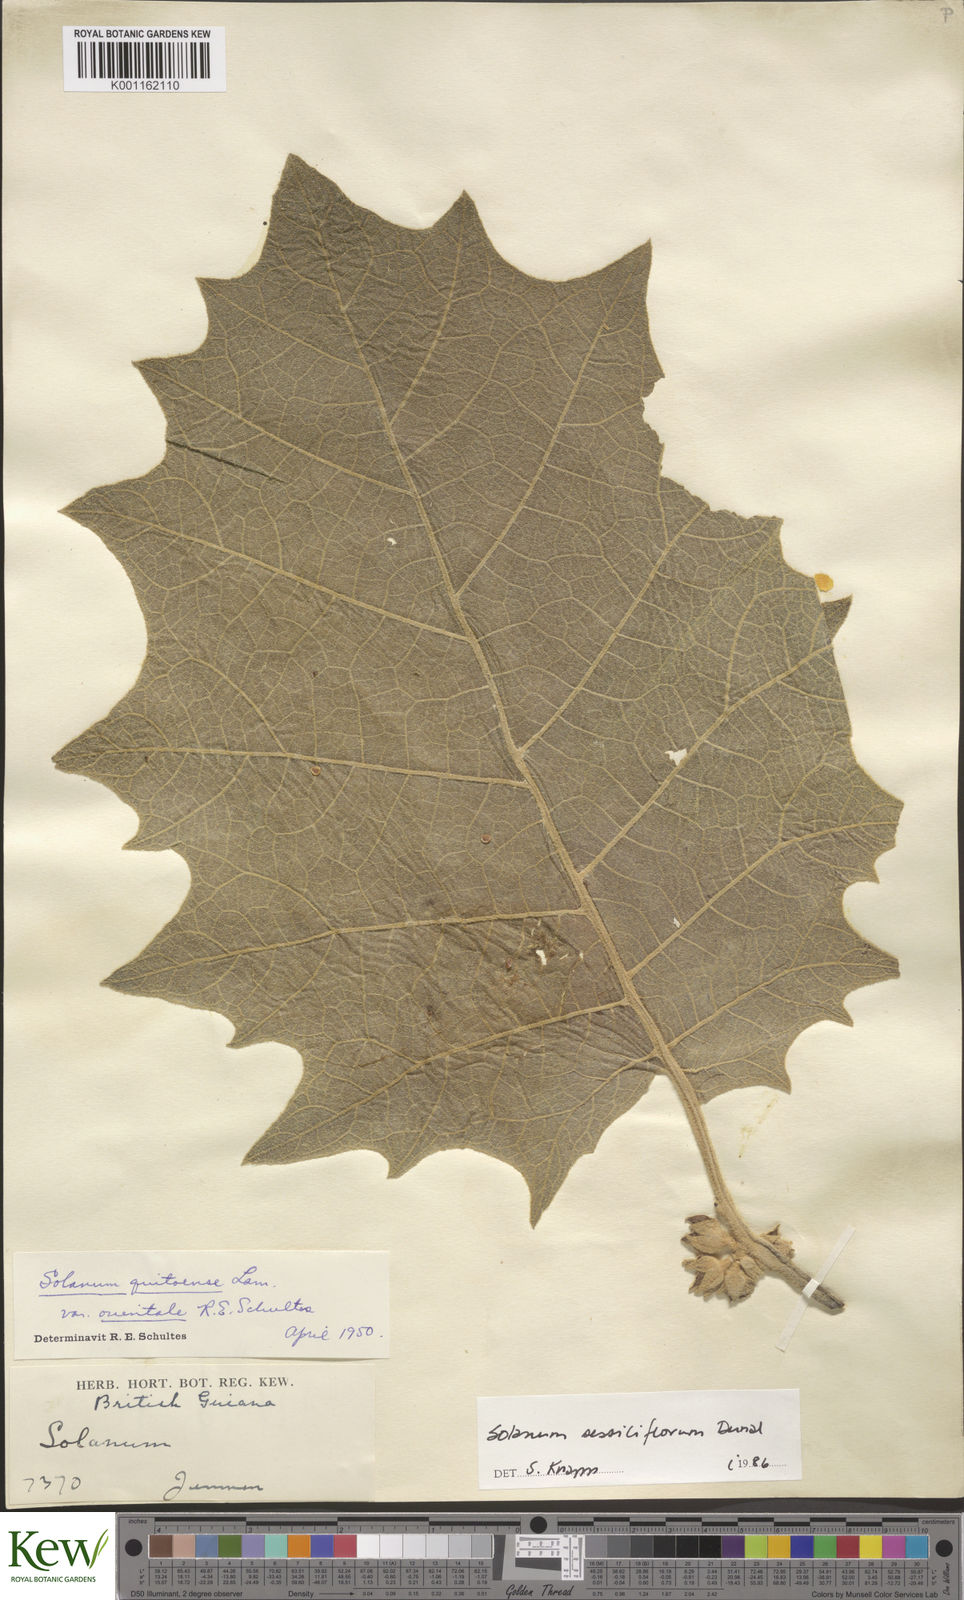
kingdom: Plantae
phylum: Tracheophyta
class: Magnoliopsida
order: Solanales
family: Solanaceae
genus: Solanum
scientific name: Solanum sessiliflorum
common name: Orinoco-apple
